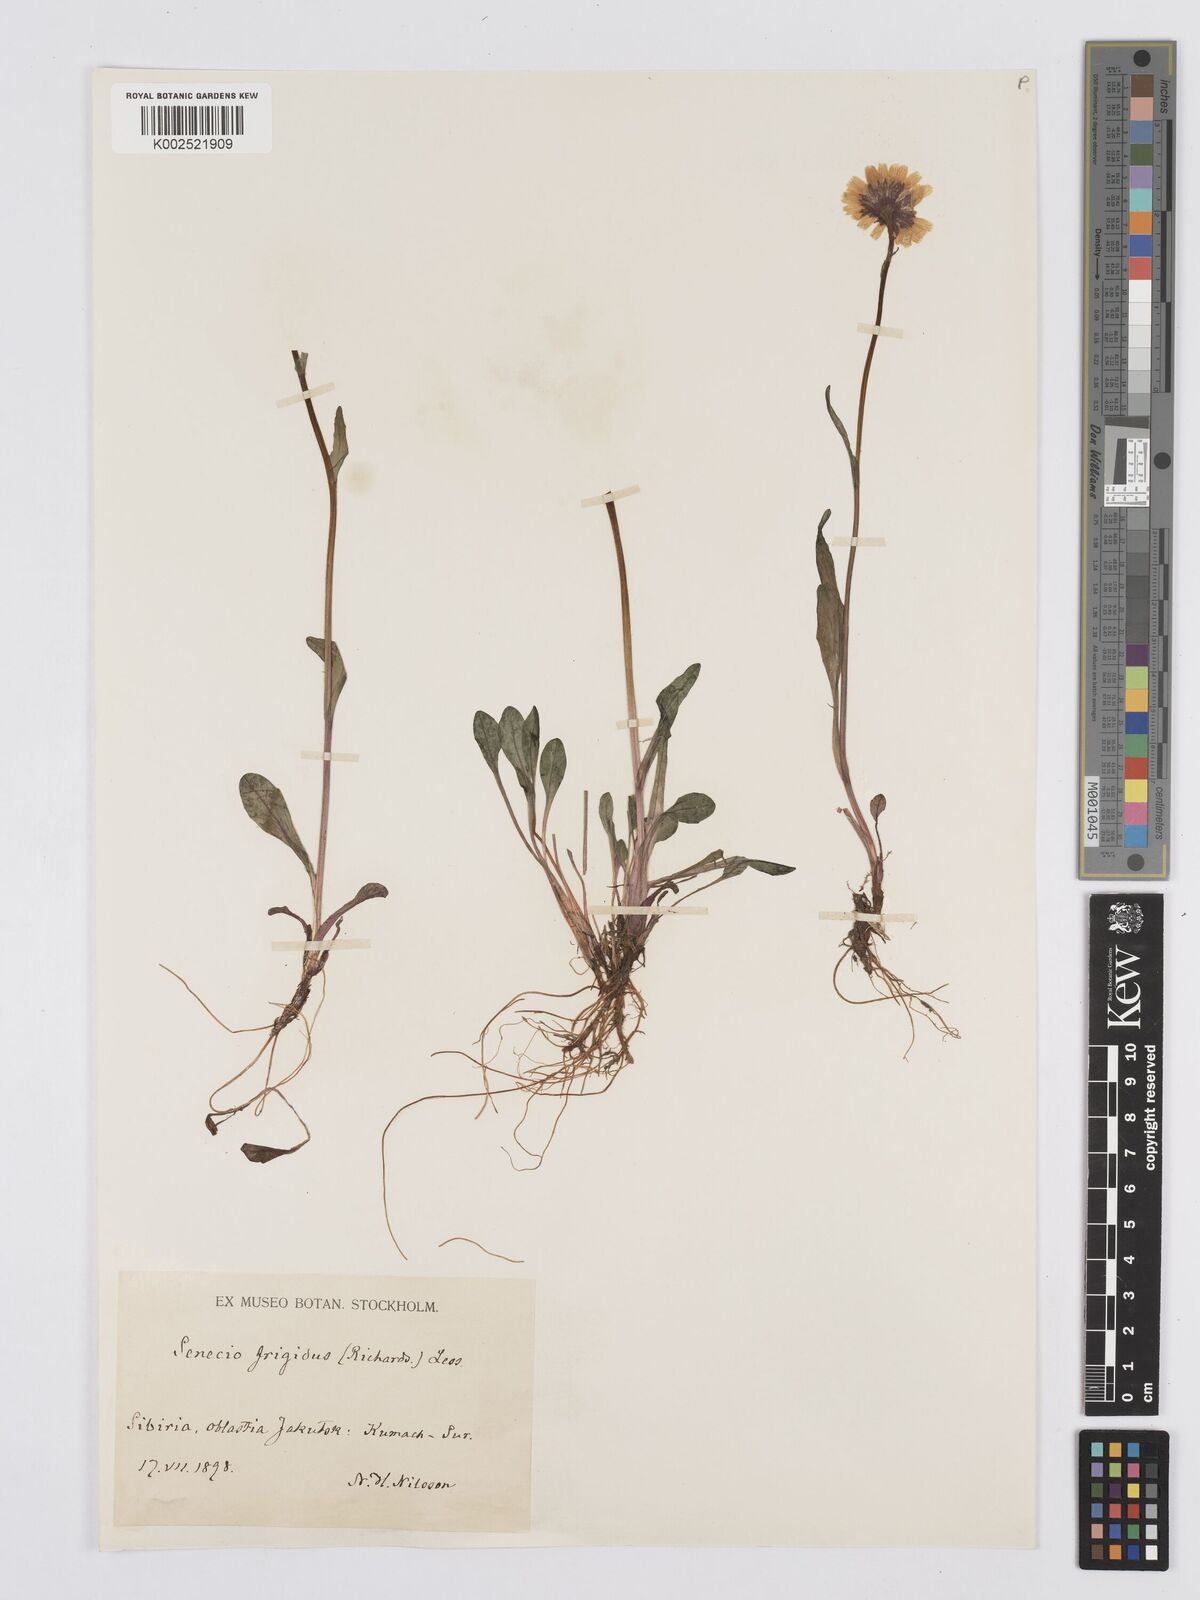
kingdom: Plantae
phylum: Tracheophyta
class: Magnoliopsida
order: Asterales
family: Asteraceae
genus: Tephroseris
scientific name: Tephroseris
